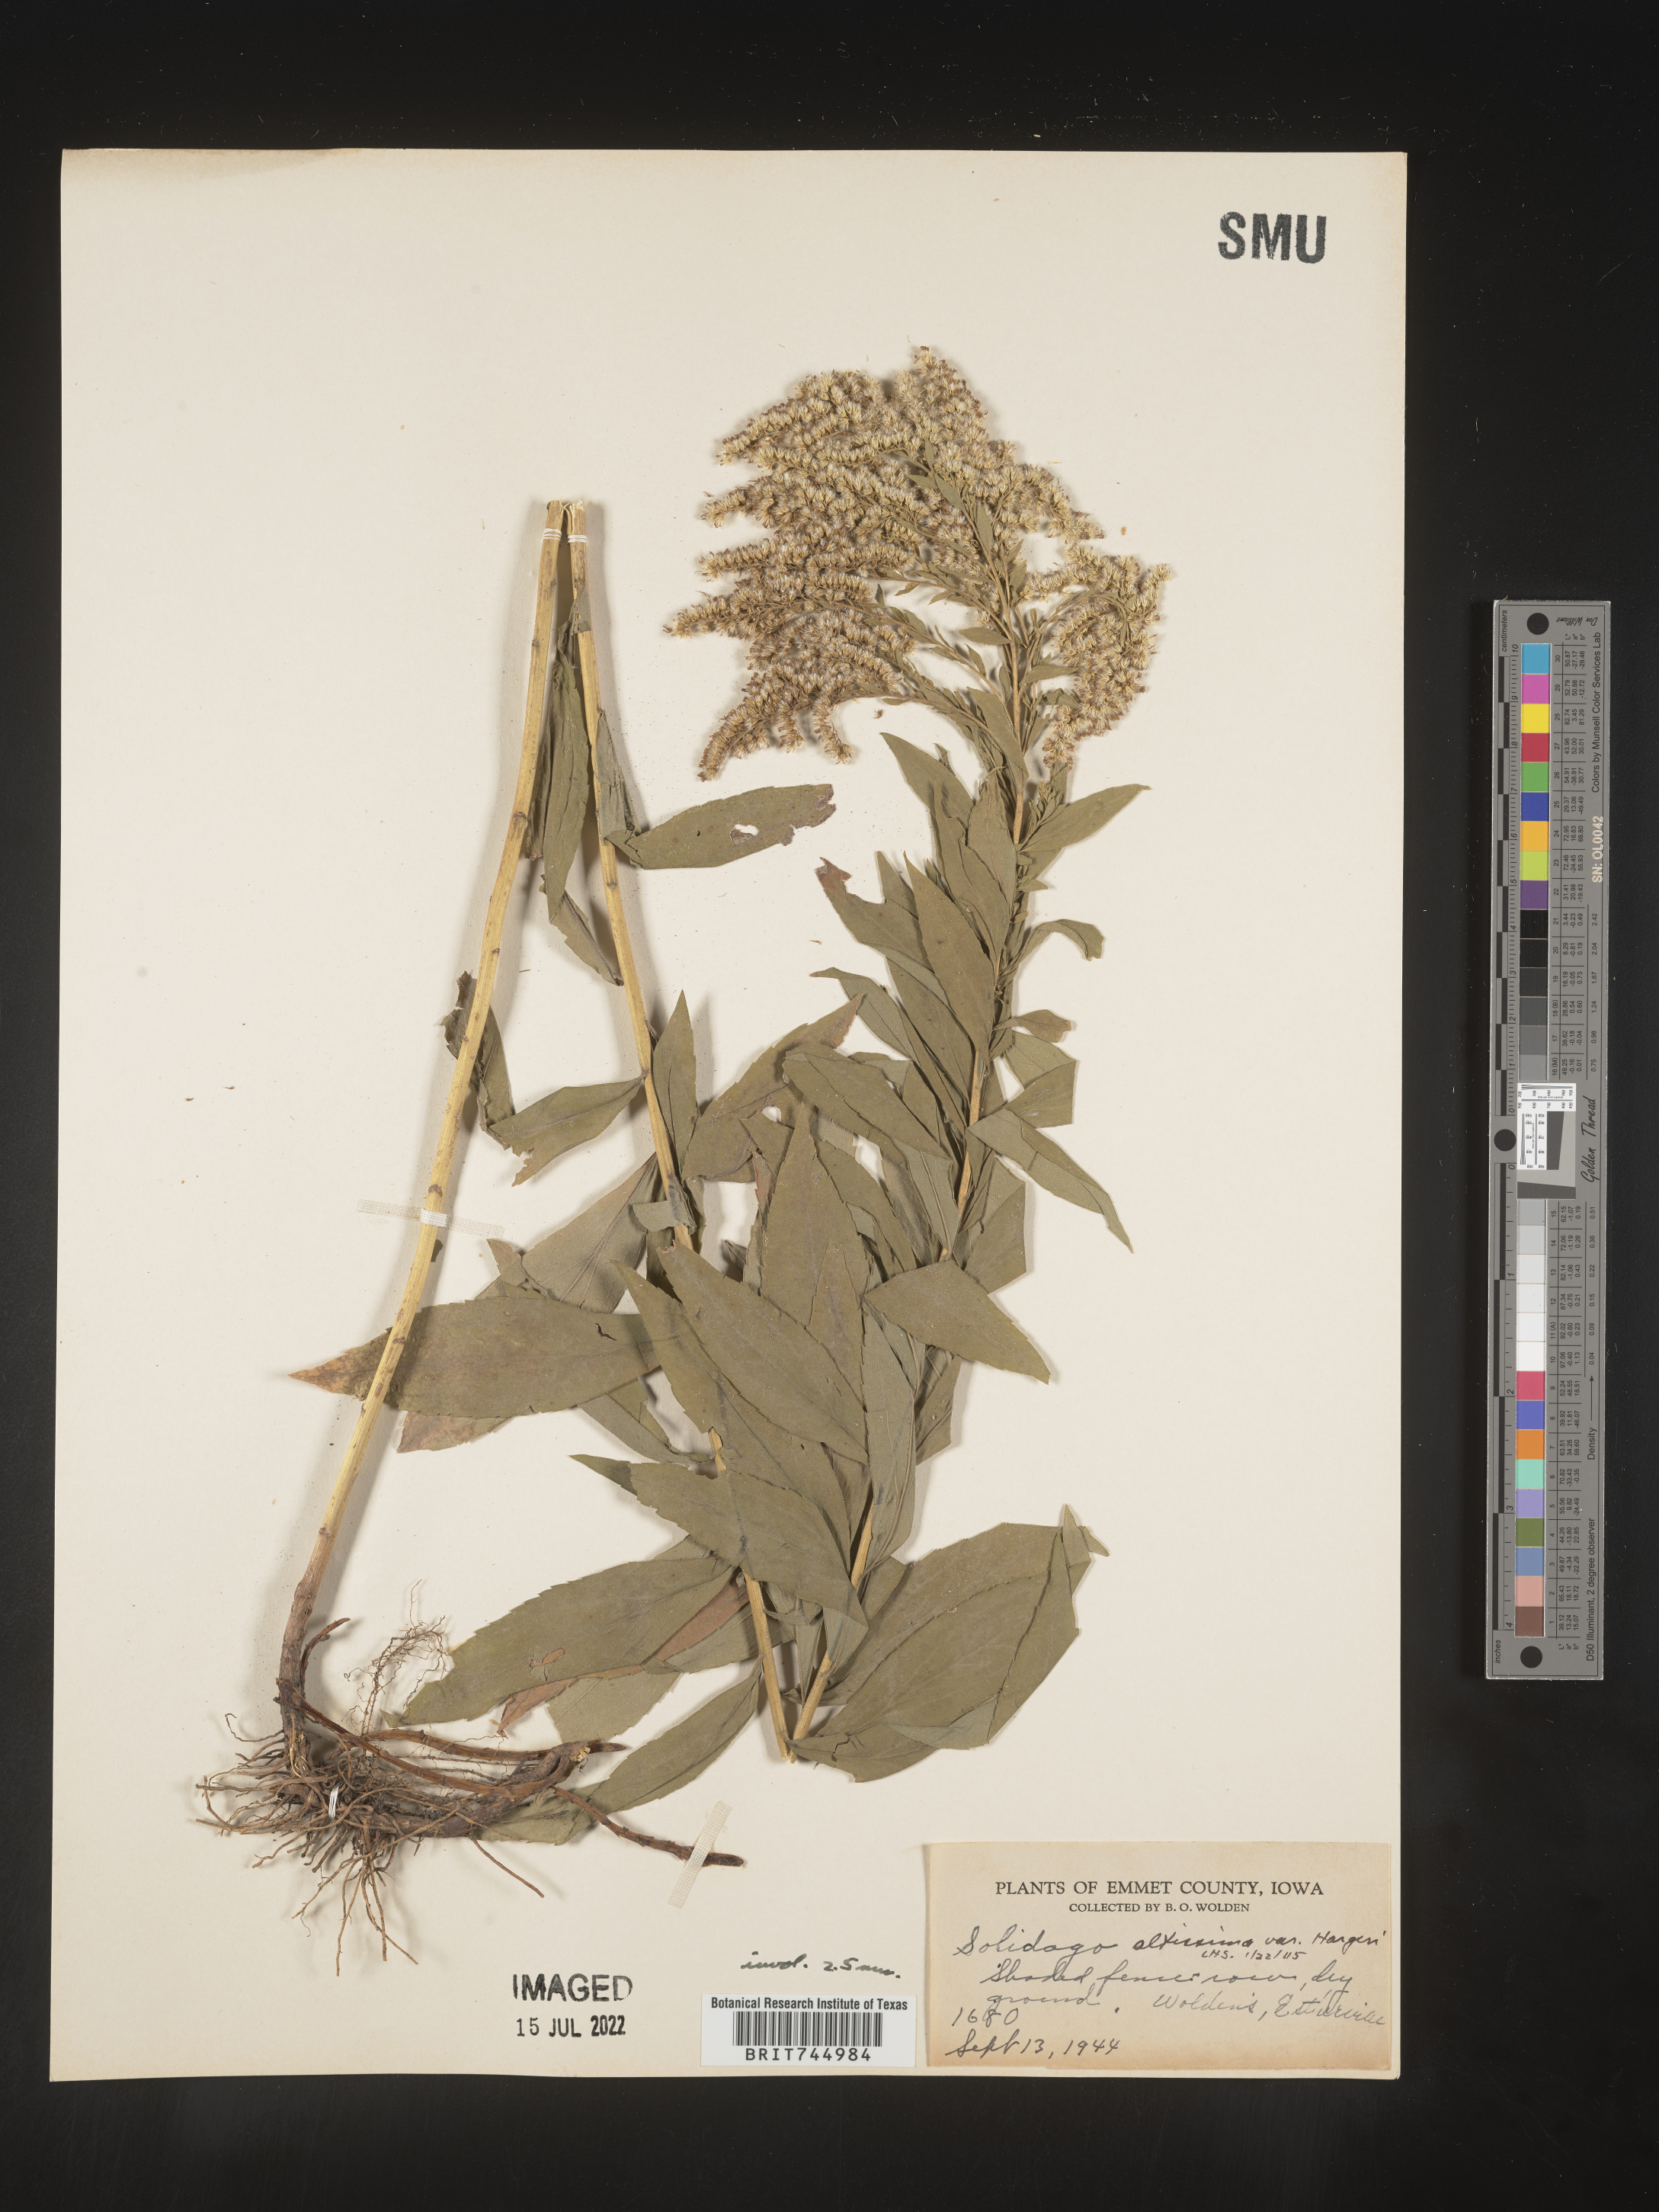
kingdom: Plantae
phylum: Tracheophyta
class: Magnoliopsida
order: Asterales
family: Asteraceae
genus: Solidago
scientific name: Solidago canadensis
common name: Canada goldenrod
